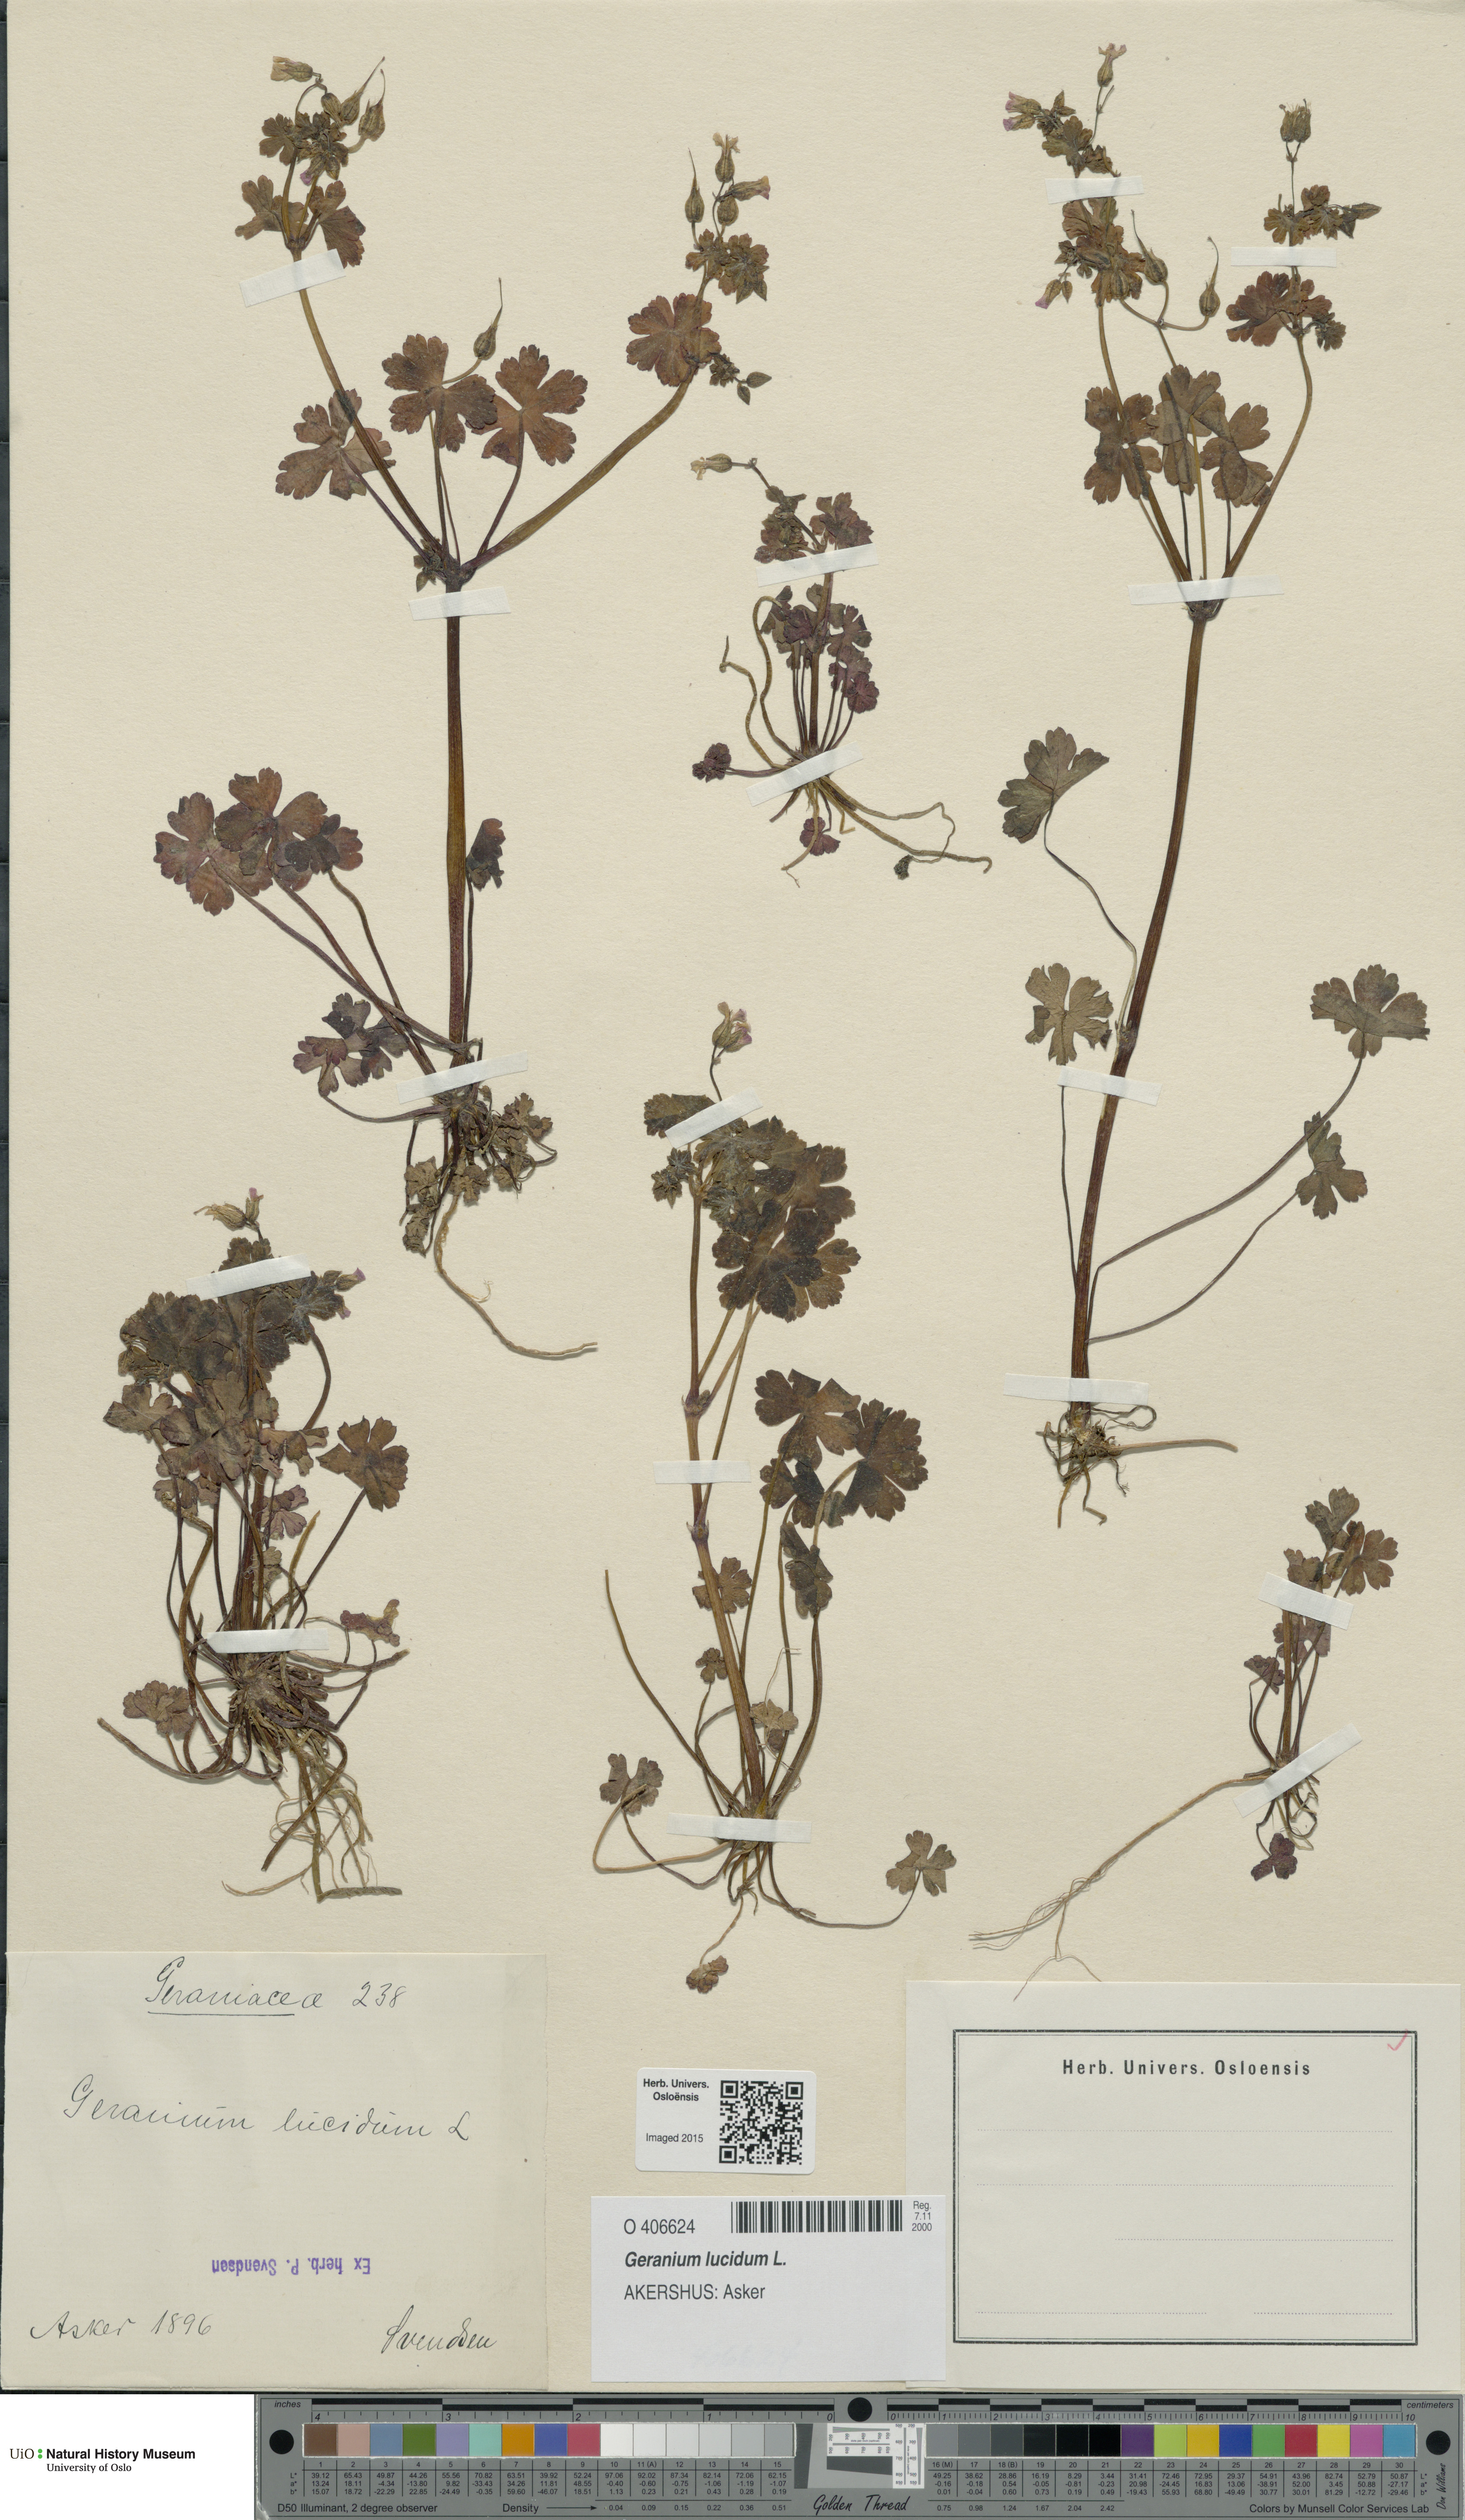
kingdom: Plantae
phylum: Tracheophyta
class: Magnoliopsida
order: Geraniales
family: Geraniaceae
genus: Geranium
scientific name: Geranium lucidum
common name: Shining crane's-bill
